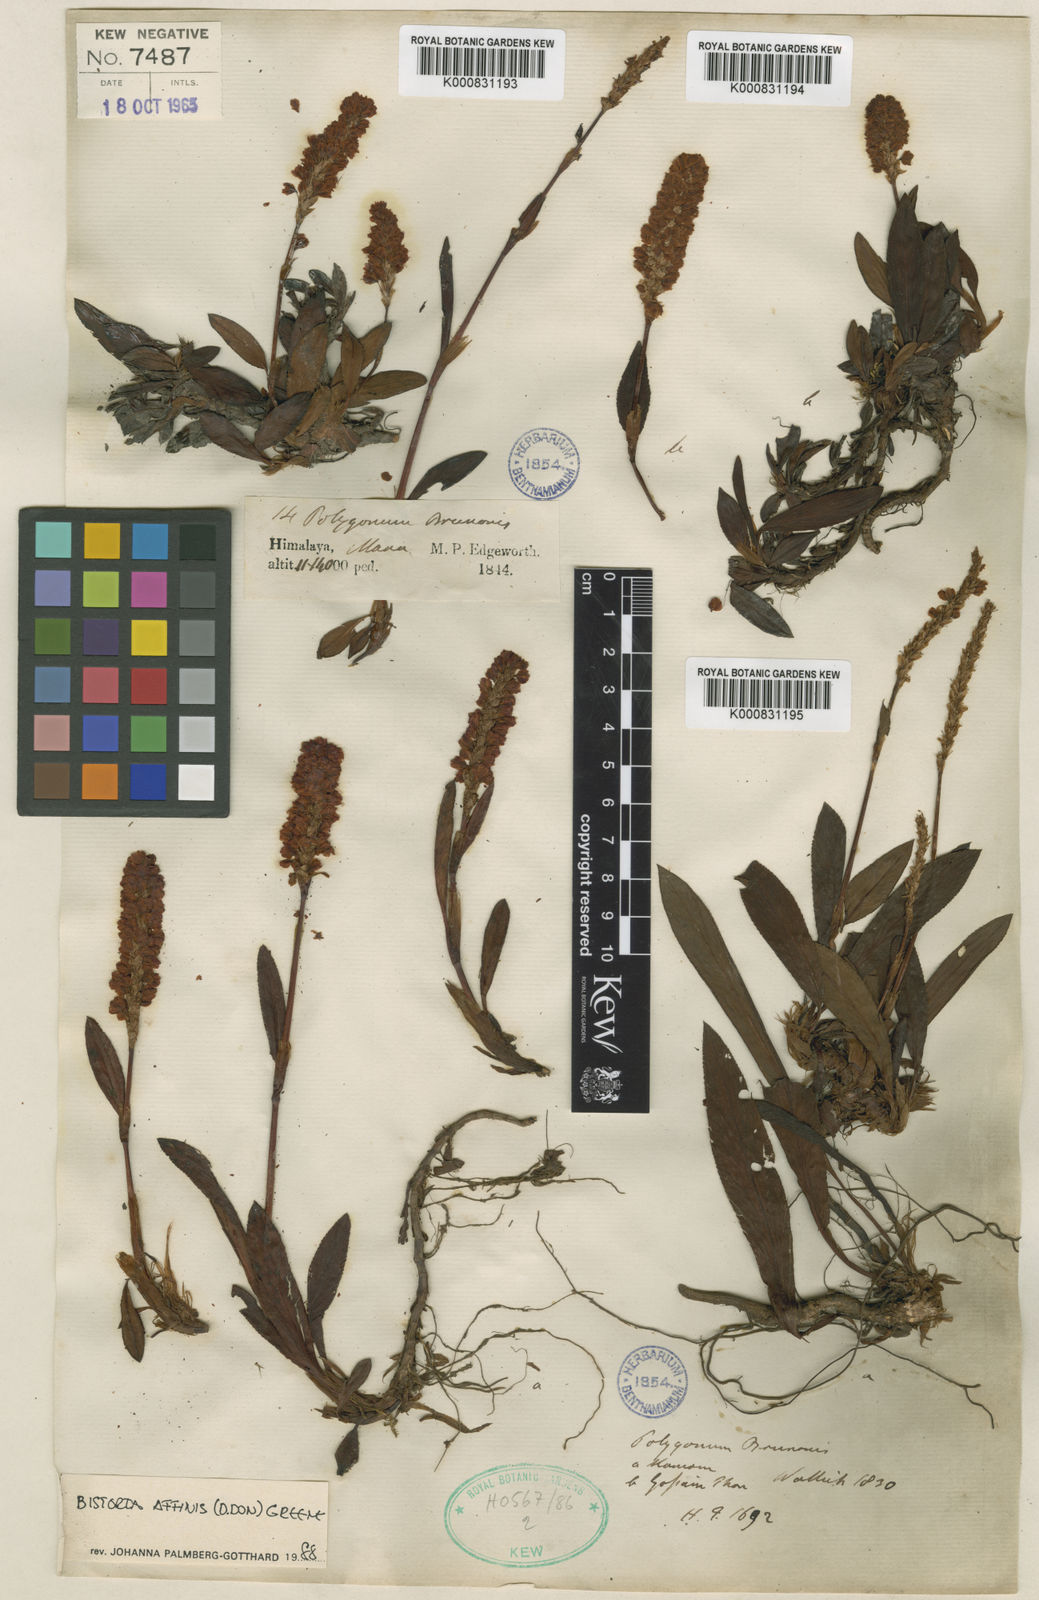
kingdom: Plantae
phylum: Tracheophyta
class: Magnoliopsida
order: Caryophyllales
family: Polygonaceae
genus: Bistorta
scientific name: Bistorta affinis
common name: Himalayan fleeceflower
